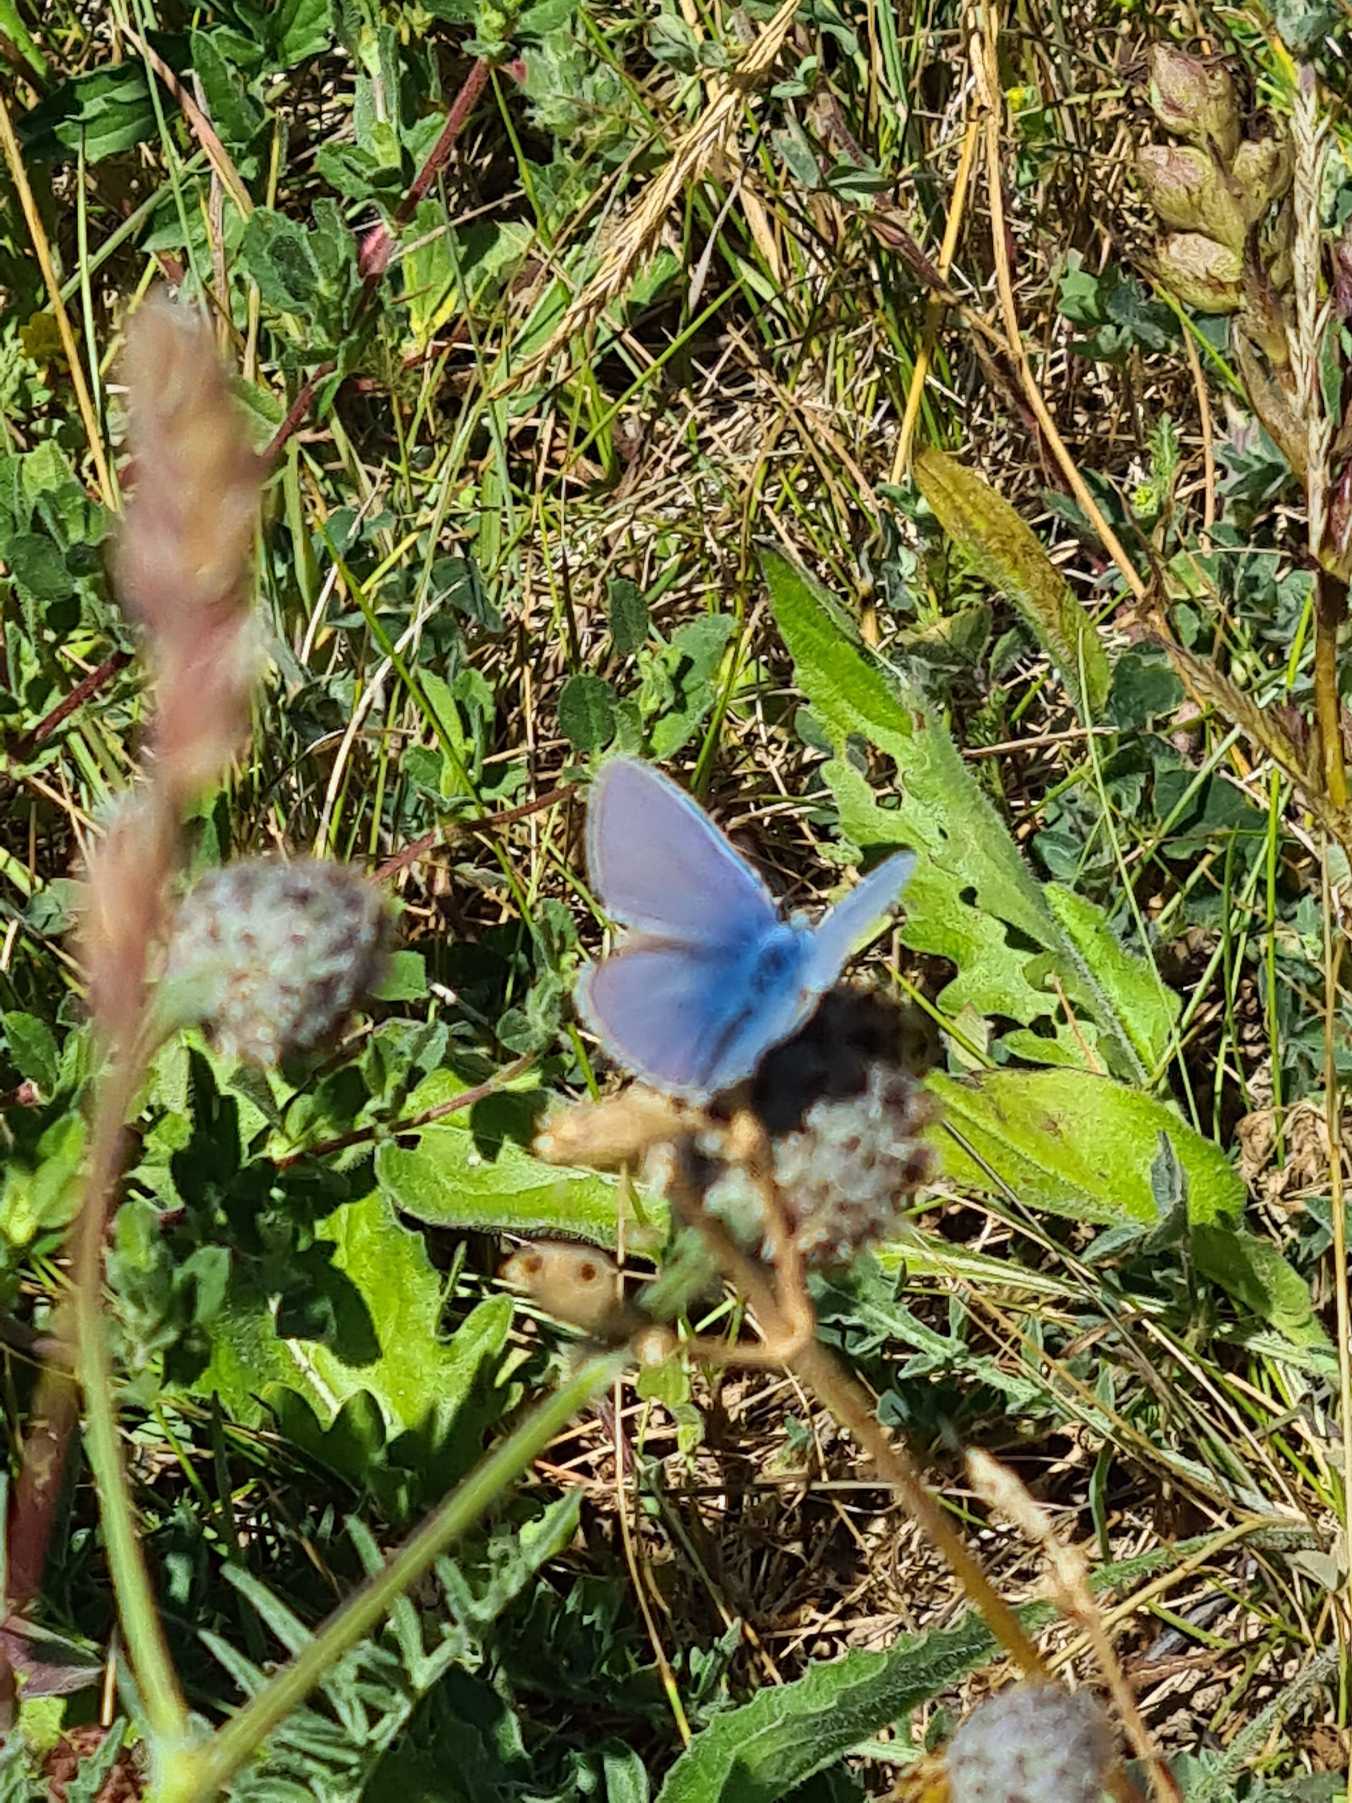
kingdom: Animalia
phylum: Arthropoda
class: Insecta
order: Lepidoptera
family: Lycaenidae
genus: Polyommatus
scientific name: Polyommatus icarus
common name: Almindelig blåfugl
